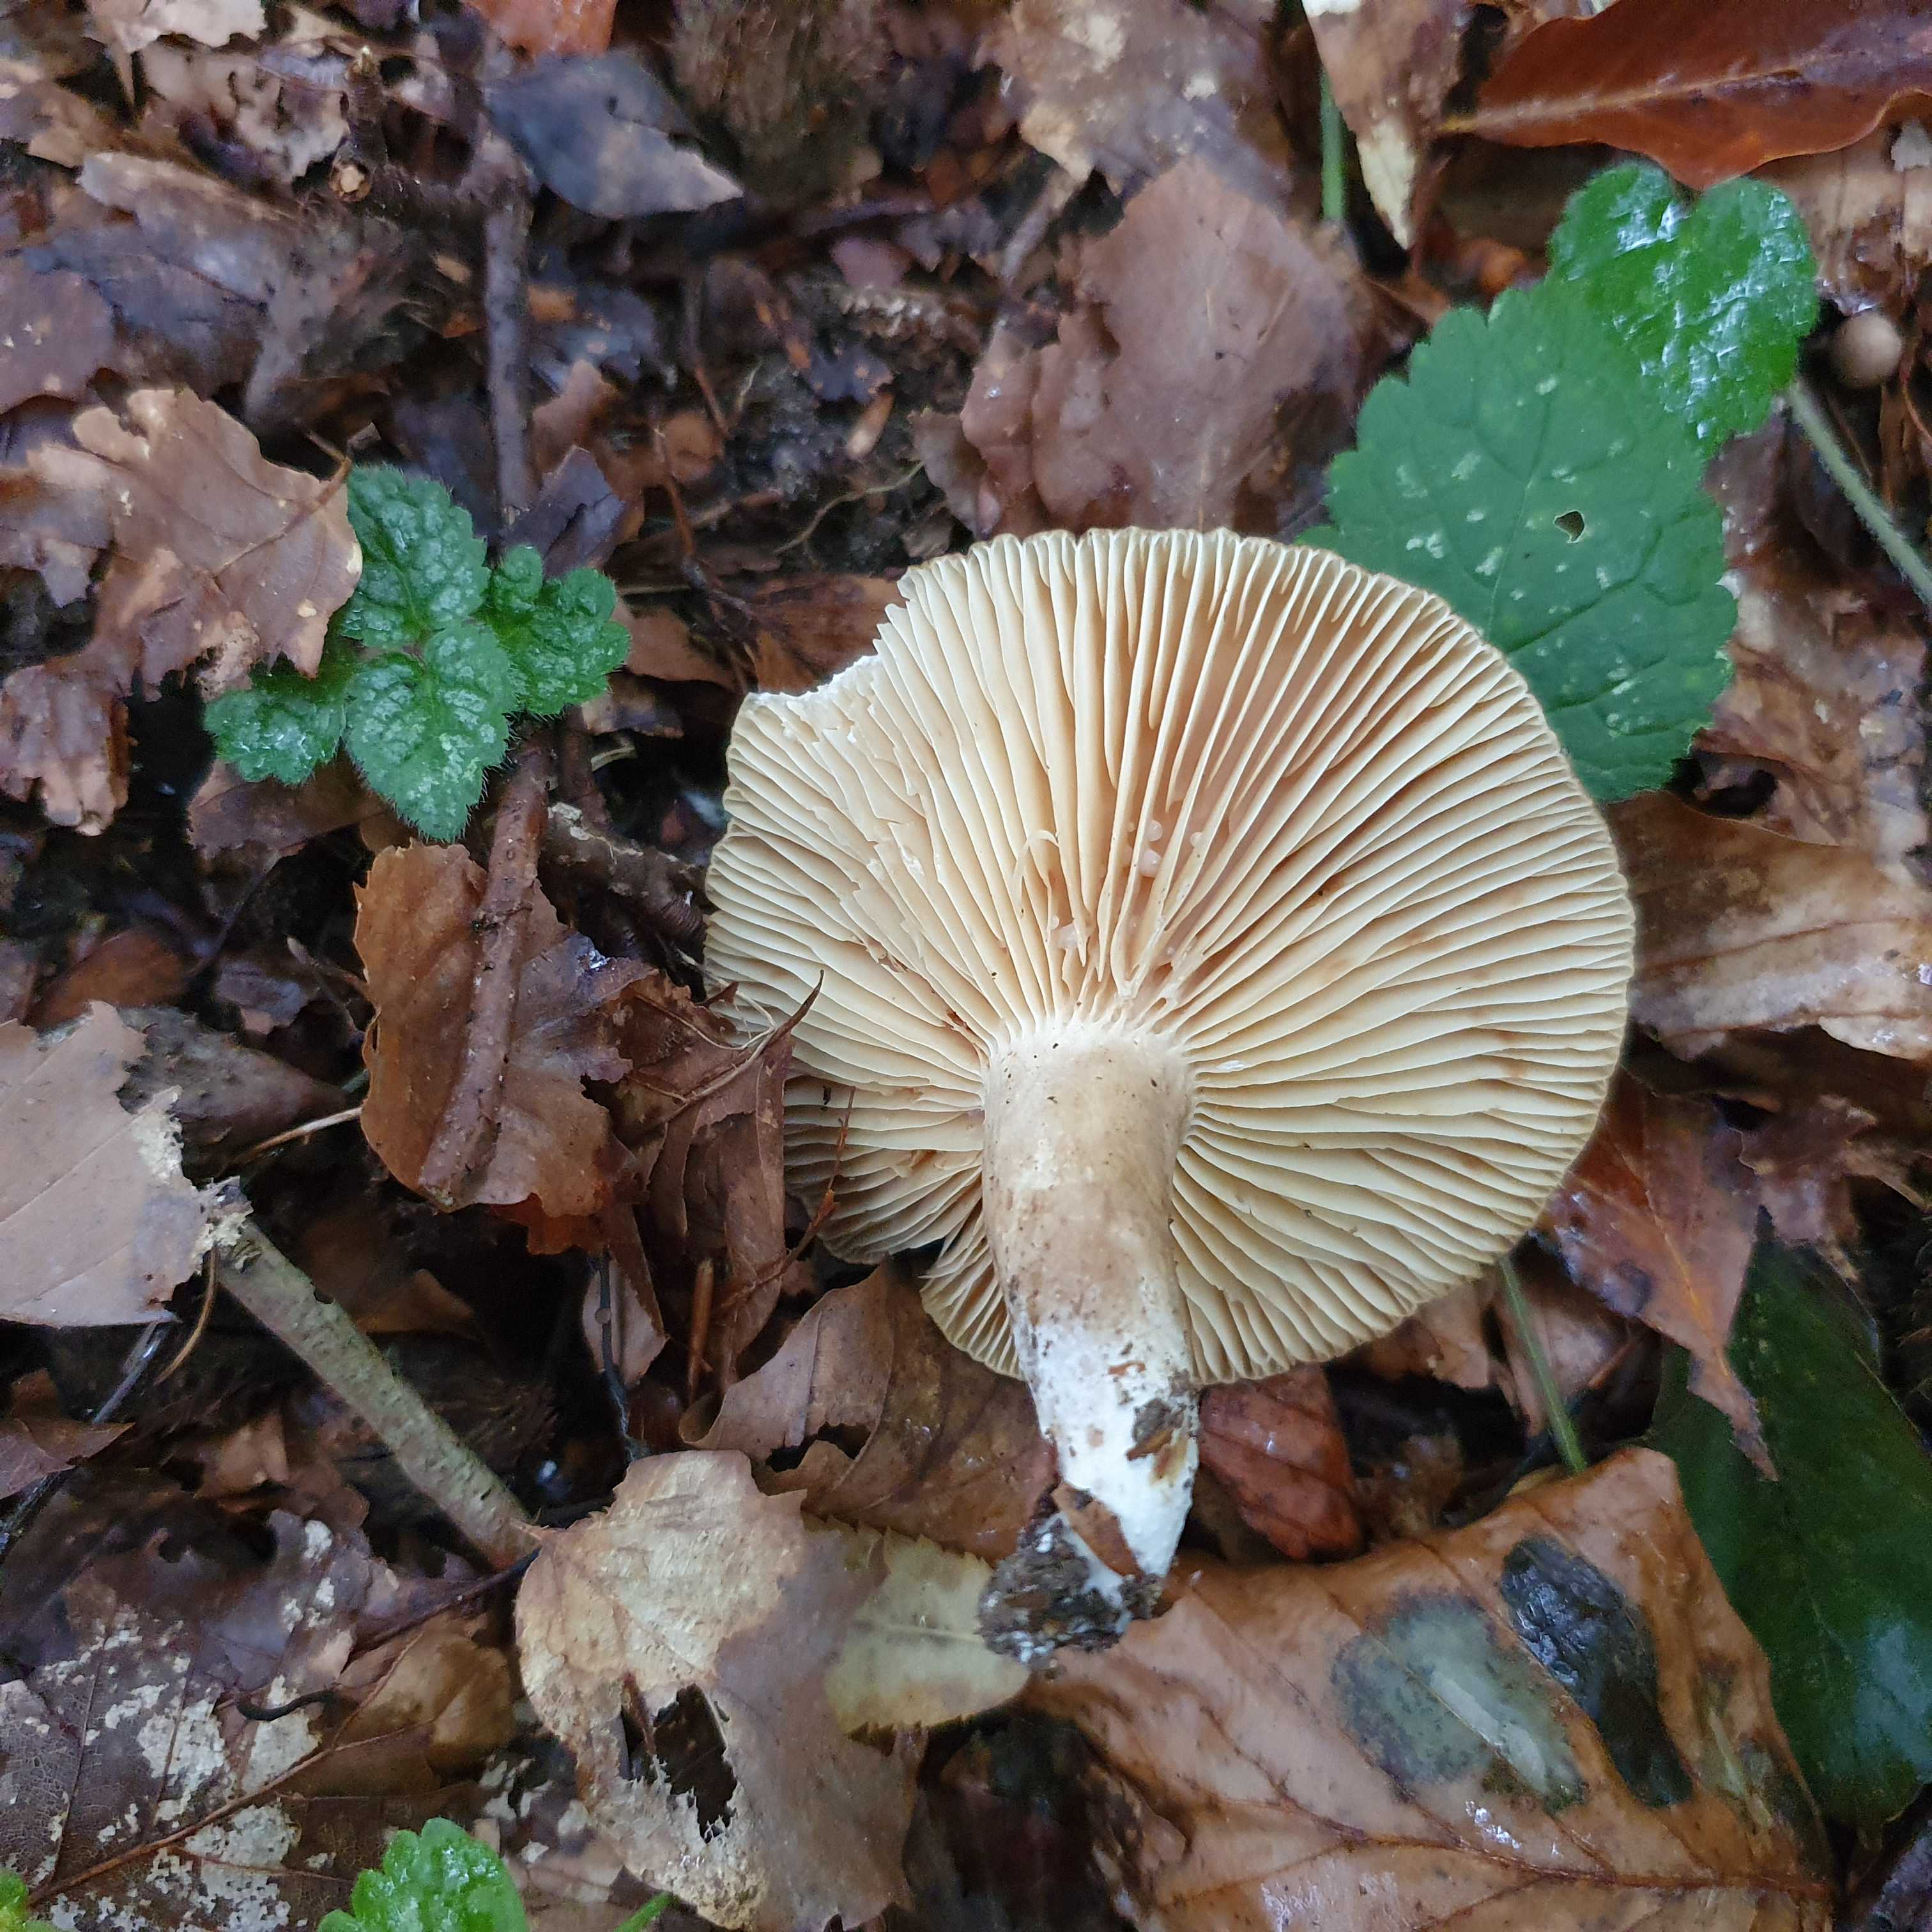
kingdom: Fungi
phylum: Basidiomycota
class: Agaricomycetes
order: Russulales
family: Russulaceae
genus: Lactarius
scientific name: Lactarius
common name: mælkehat
